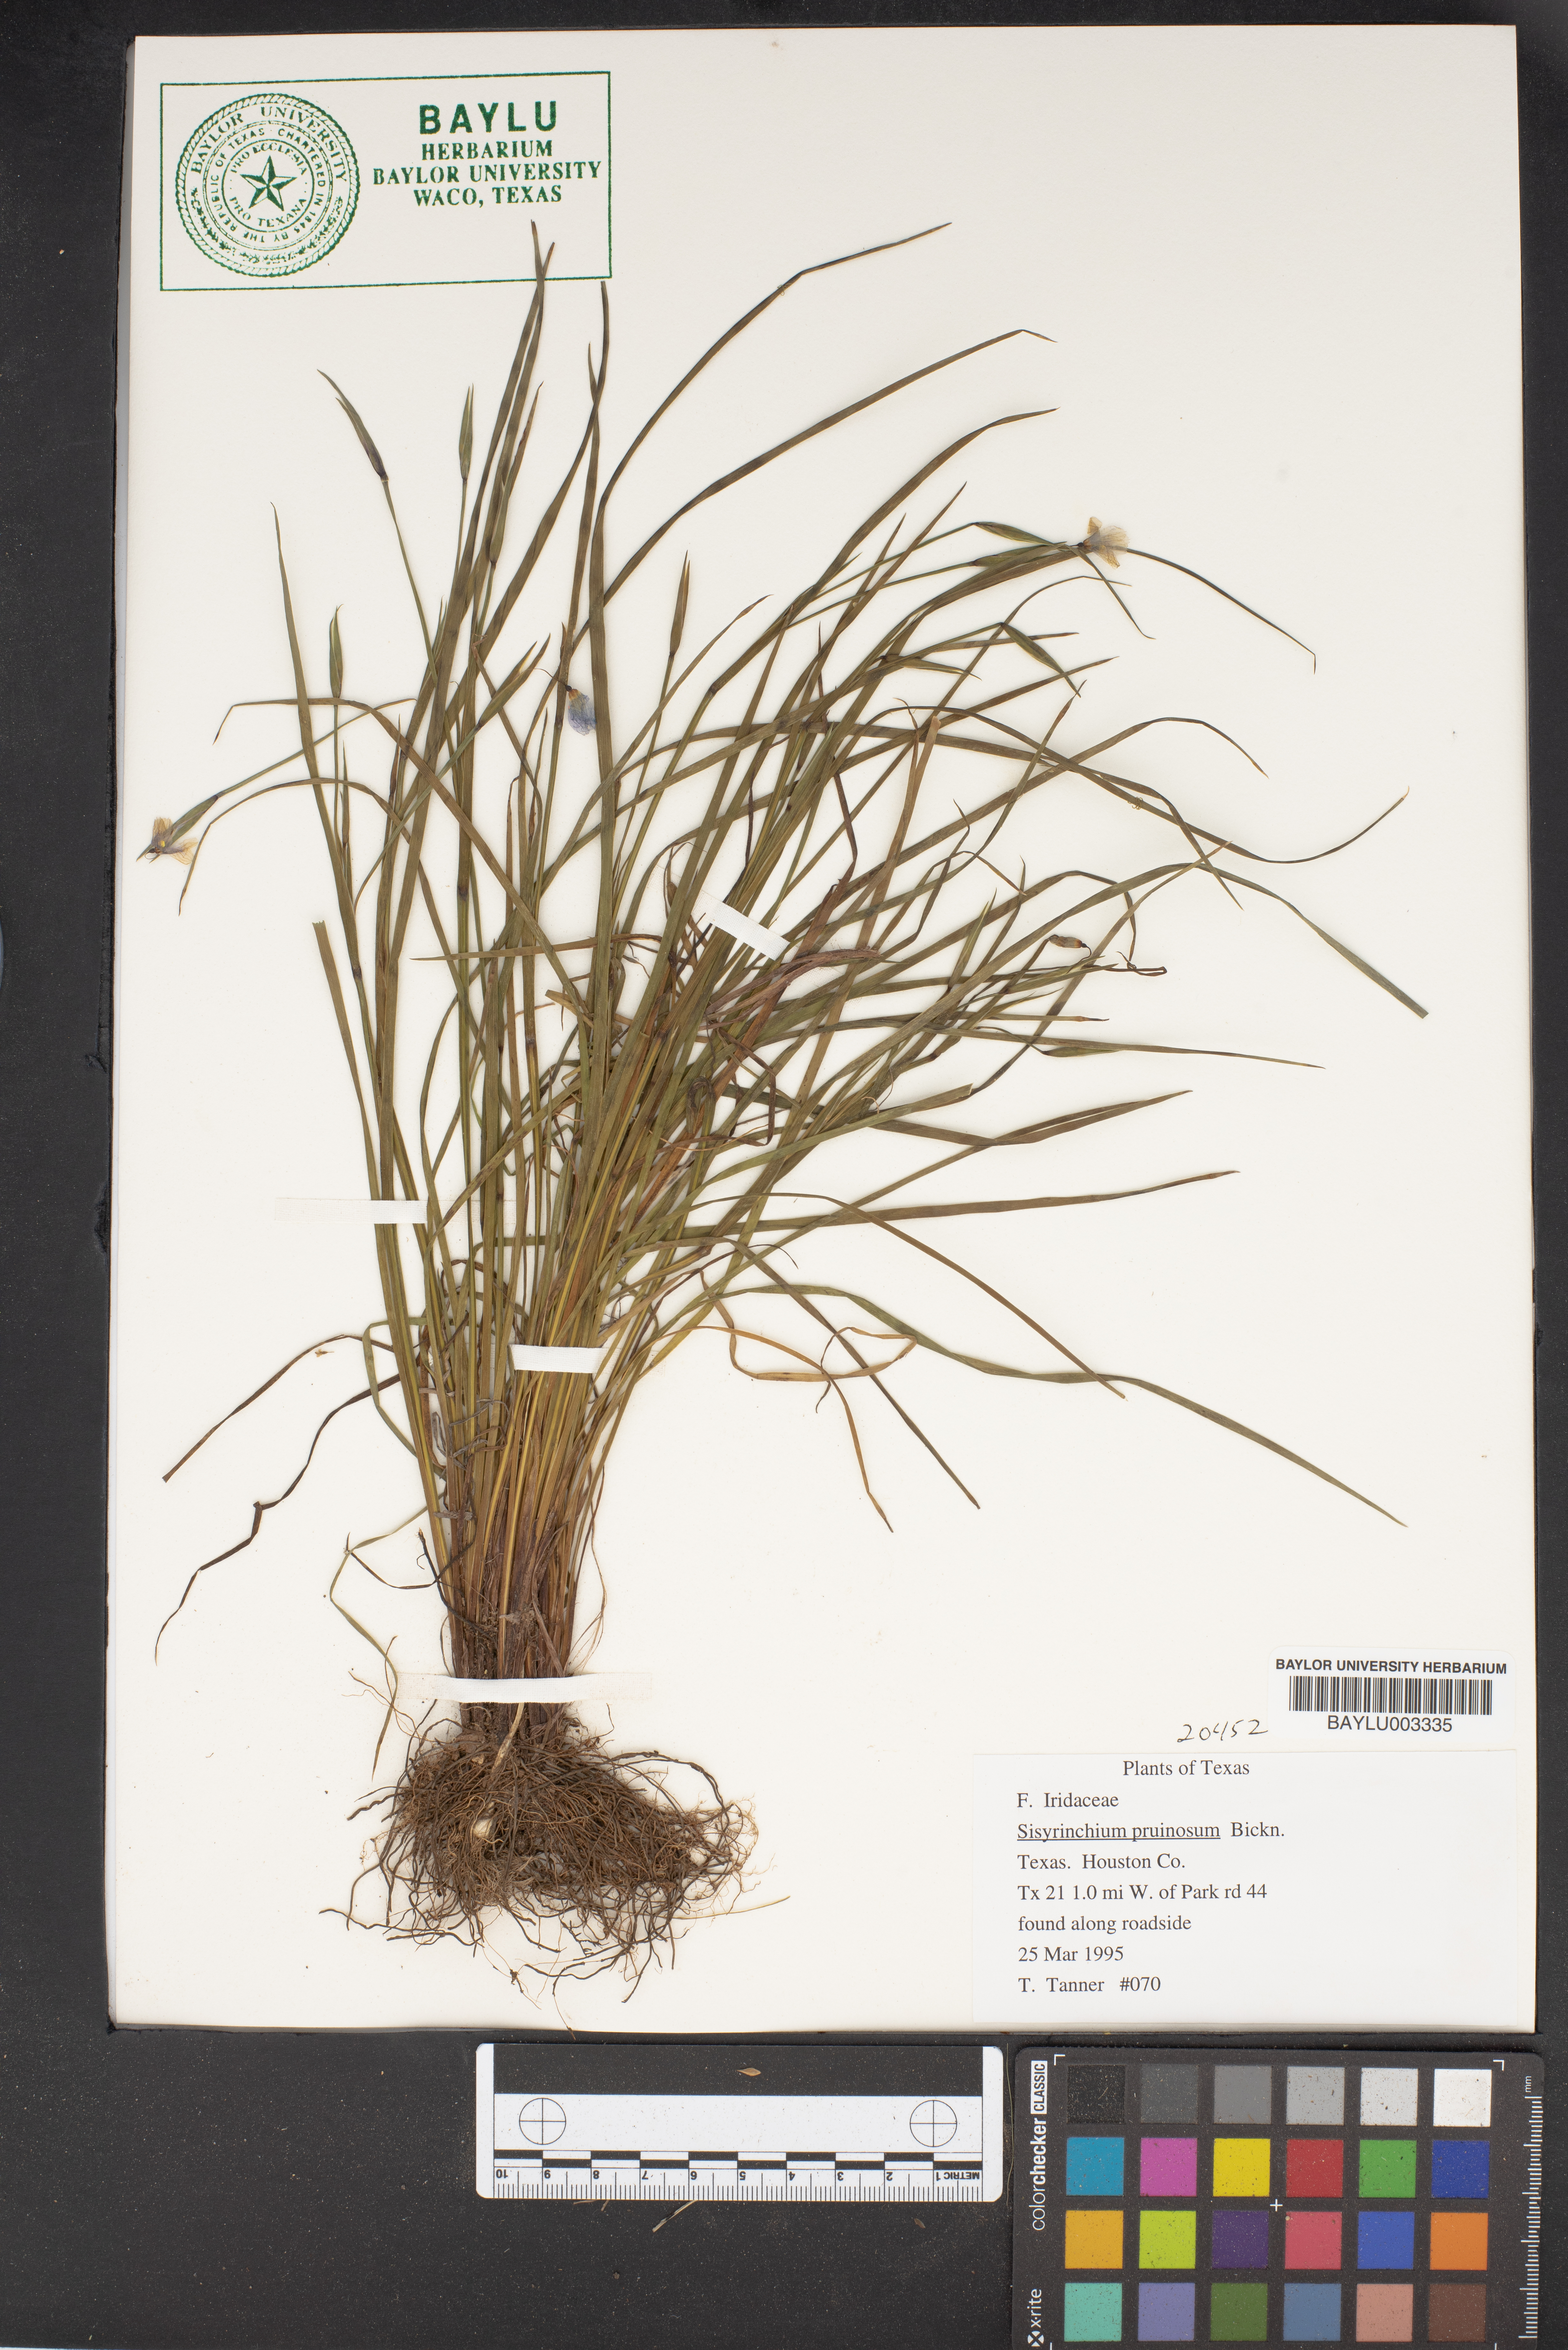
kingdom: Plantae
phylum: Tracheophyta
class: Liliopsida
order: Asparagales
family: Iridaceae
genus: Sisyrinchium
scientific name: Sisyrinchium pruinosum
